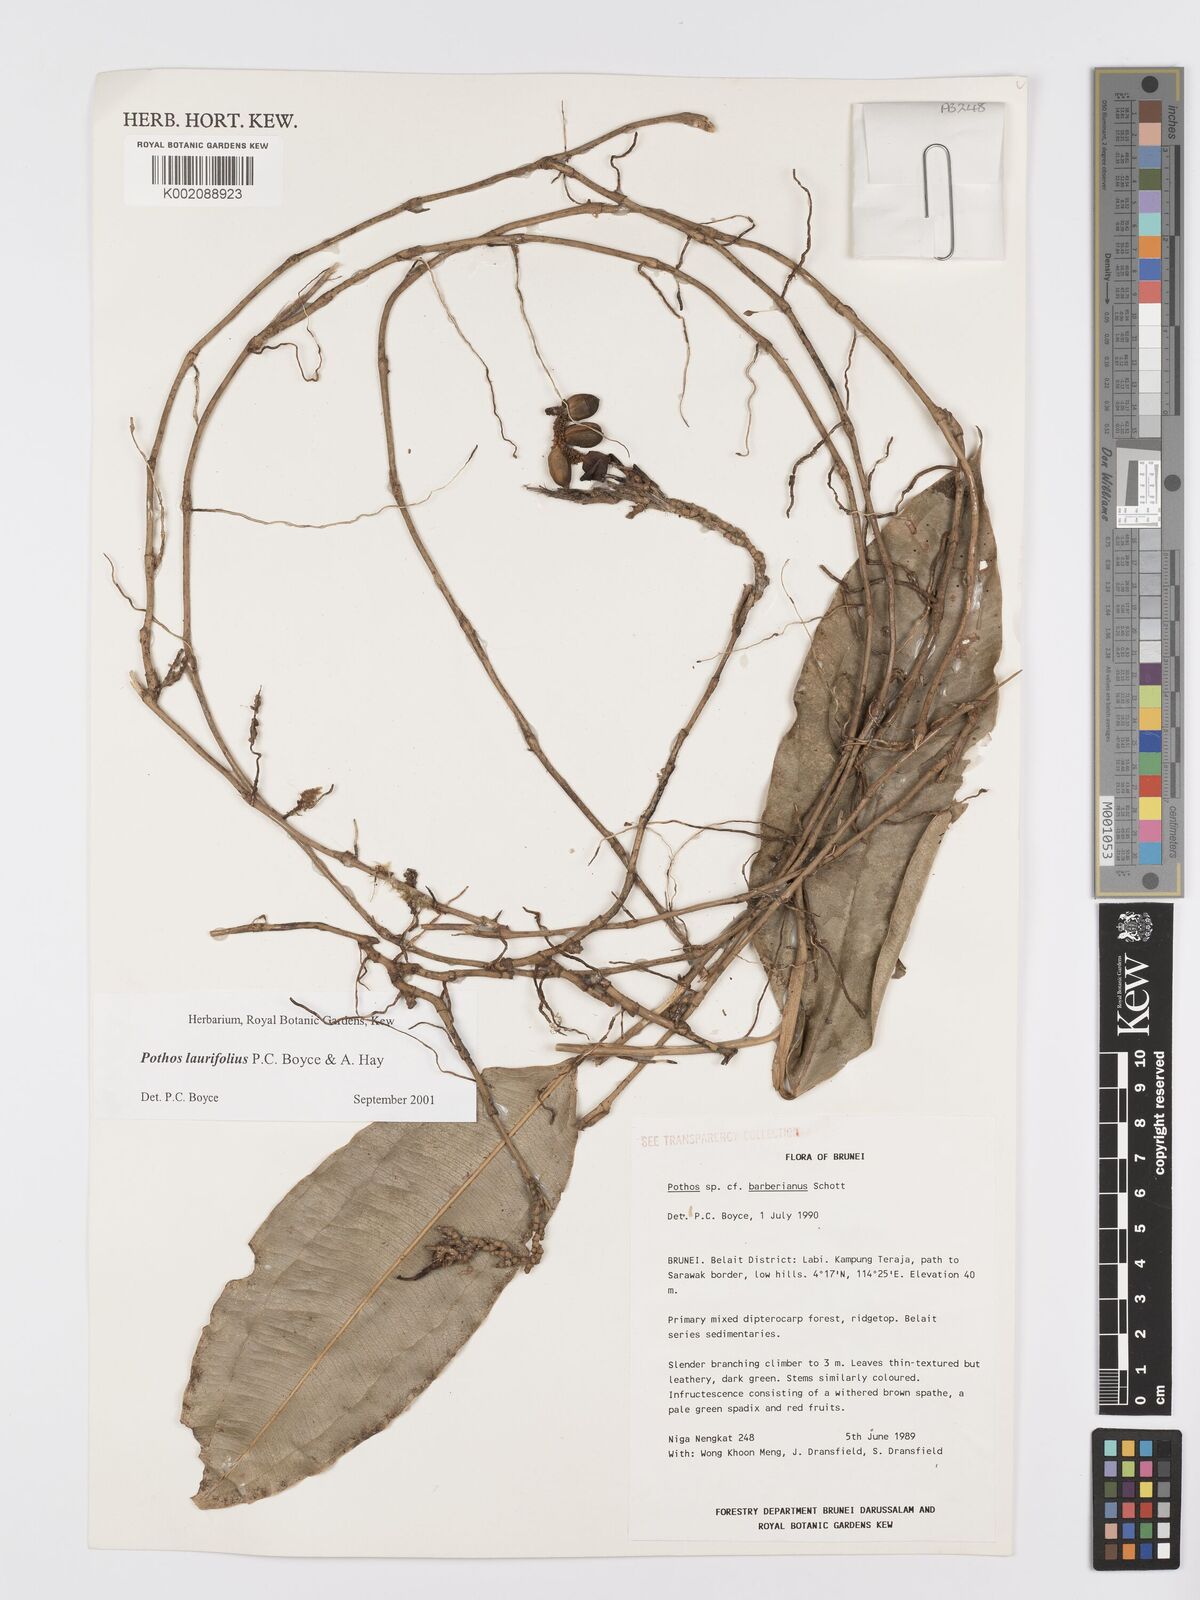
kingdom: Plantae
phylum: Tracheophyta
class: Liliopsida
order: Alismatales
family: Araceae
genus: Pothos
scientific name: Pothos laurifolius
